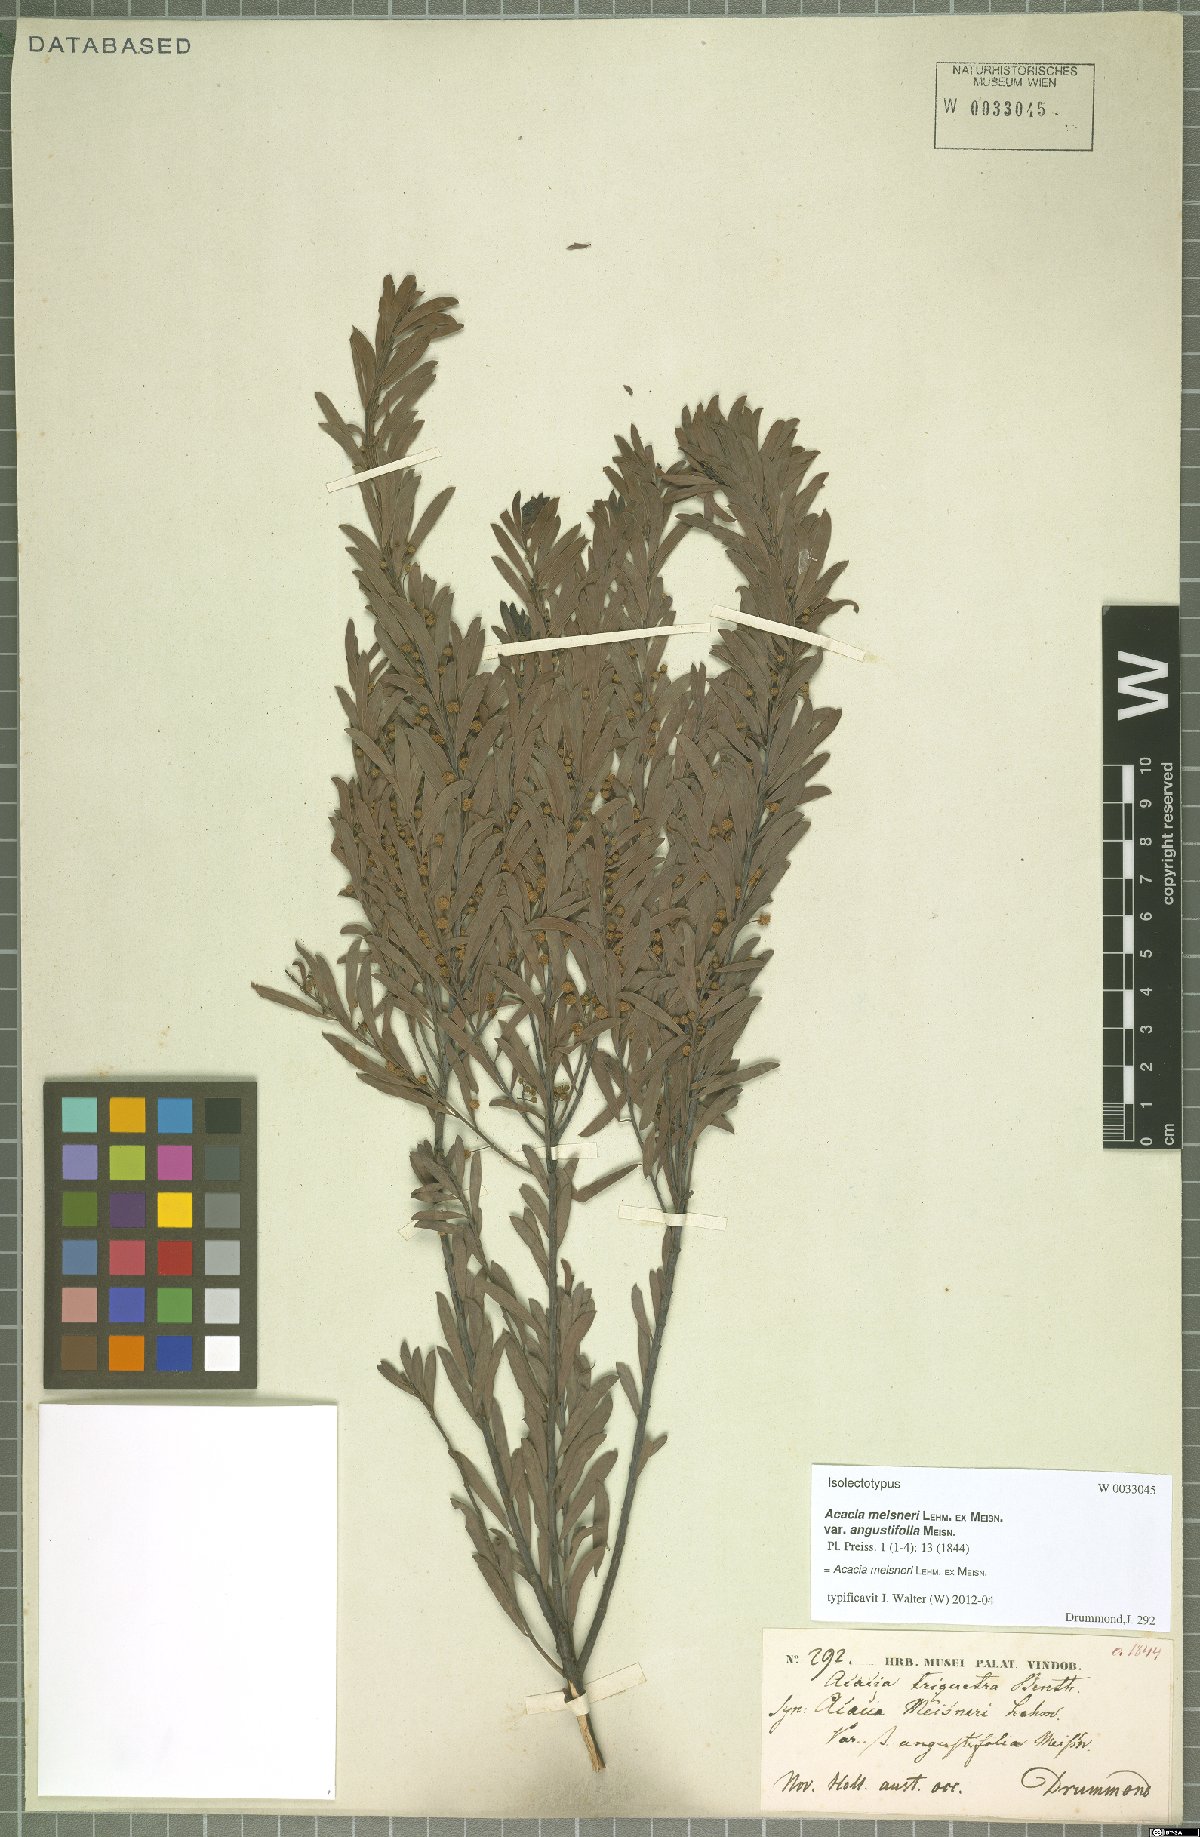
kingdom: Plantae
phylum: Tracheophyta
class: Magnoliopsida
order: Fabales
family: Fabaceae
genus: Acacia
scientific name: Acacia meisneri
